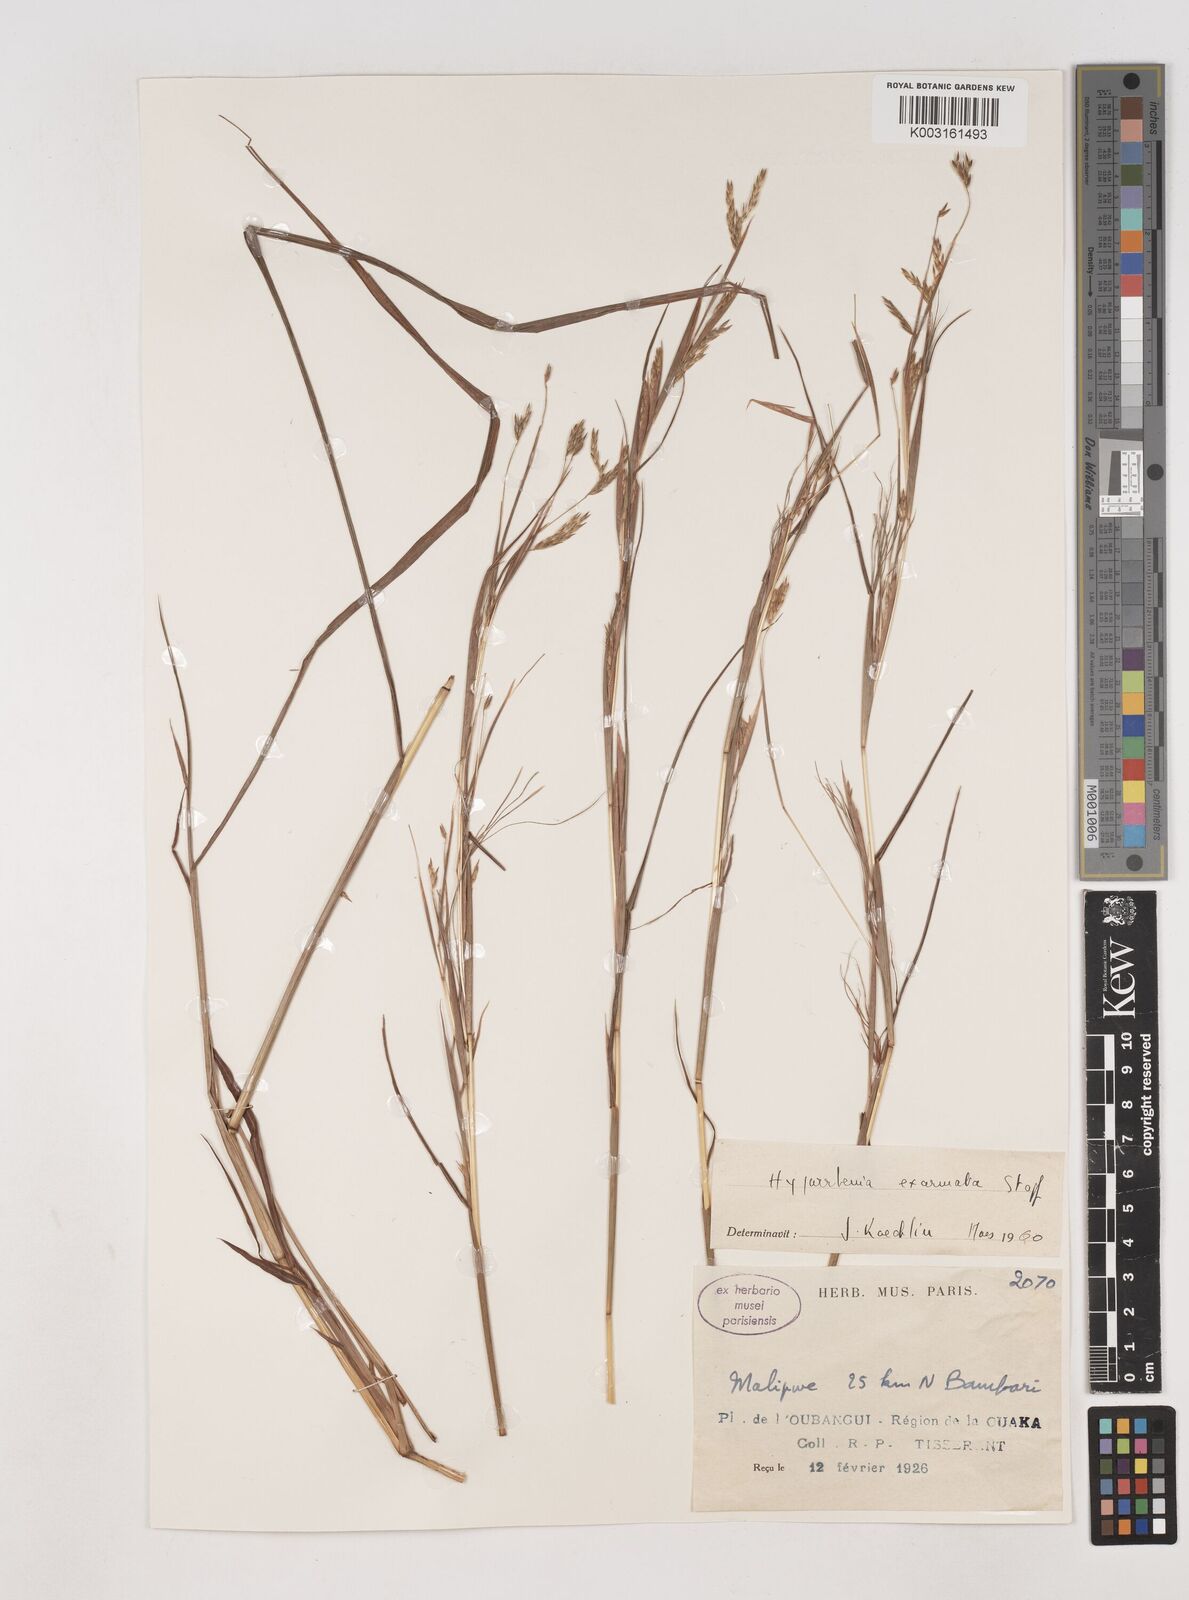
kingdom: Plantae
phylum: Tracheophyta
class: Liliopsida
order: Poales
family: Poaceae
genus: Hyparrhenia
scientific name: Hyparrhenia exarmata
